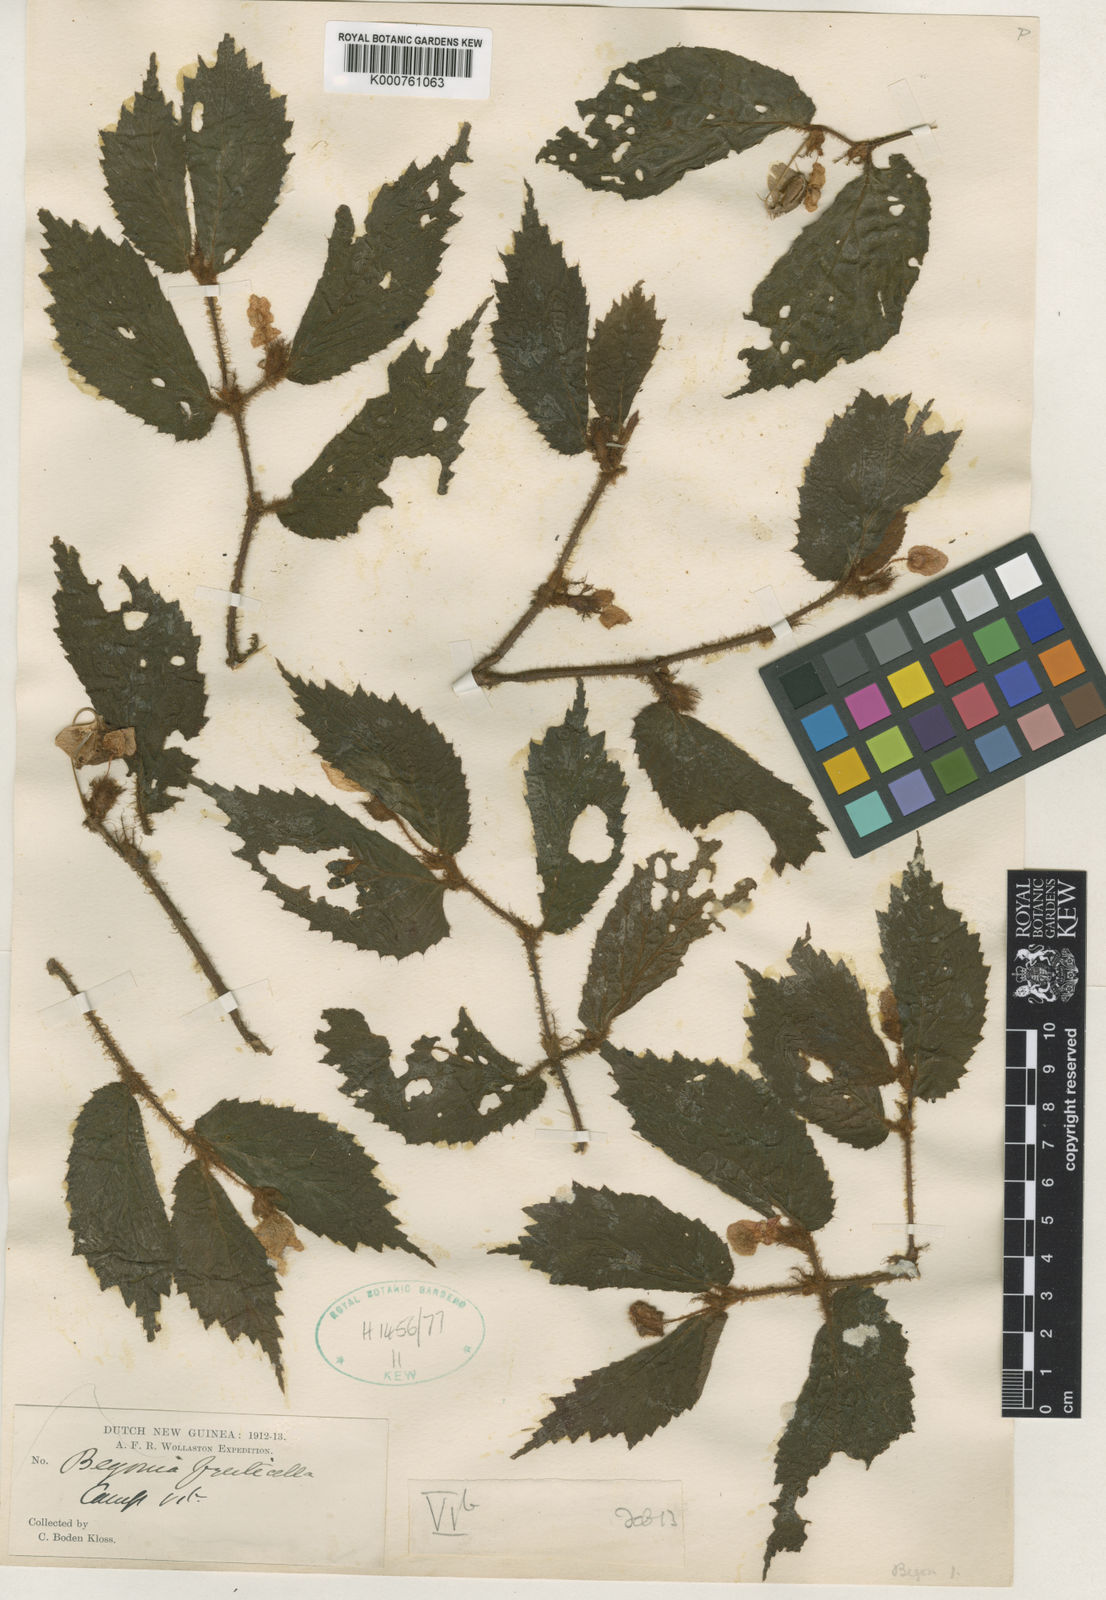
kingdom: Plantae
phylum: Tracheophyta
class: Magnoliopsida
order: Cucurbitales
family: Begoniaceae
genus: Begonia
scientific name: Begonia fruticella
